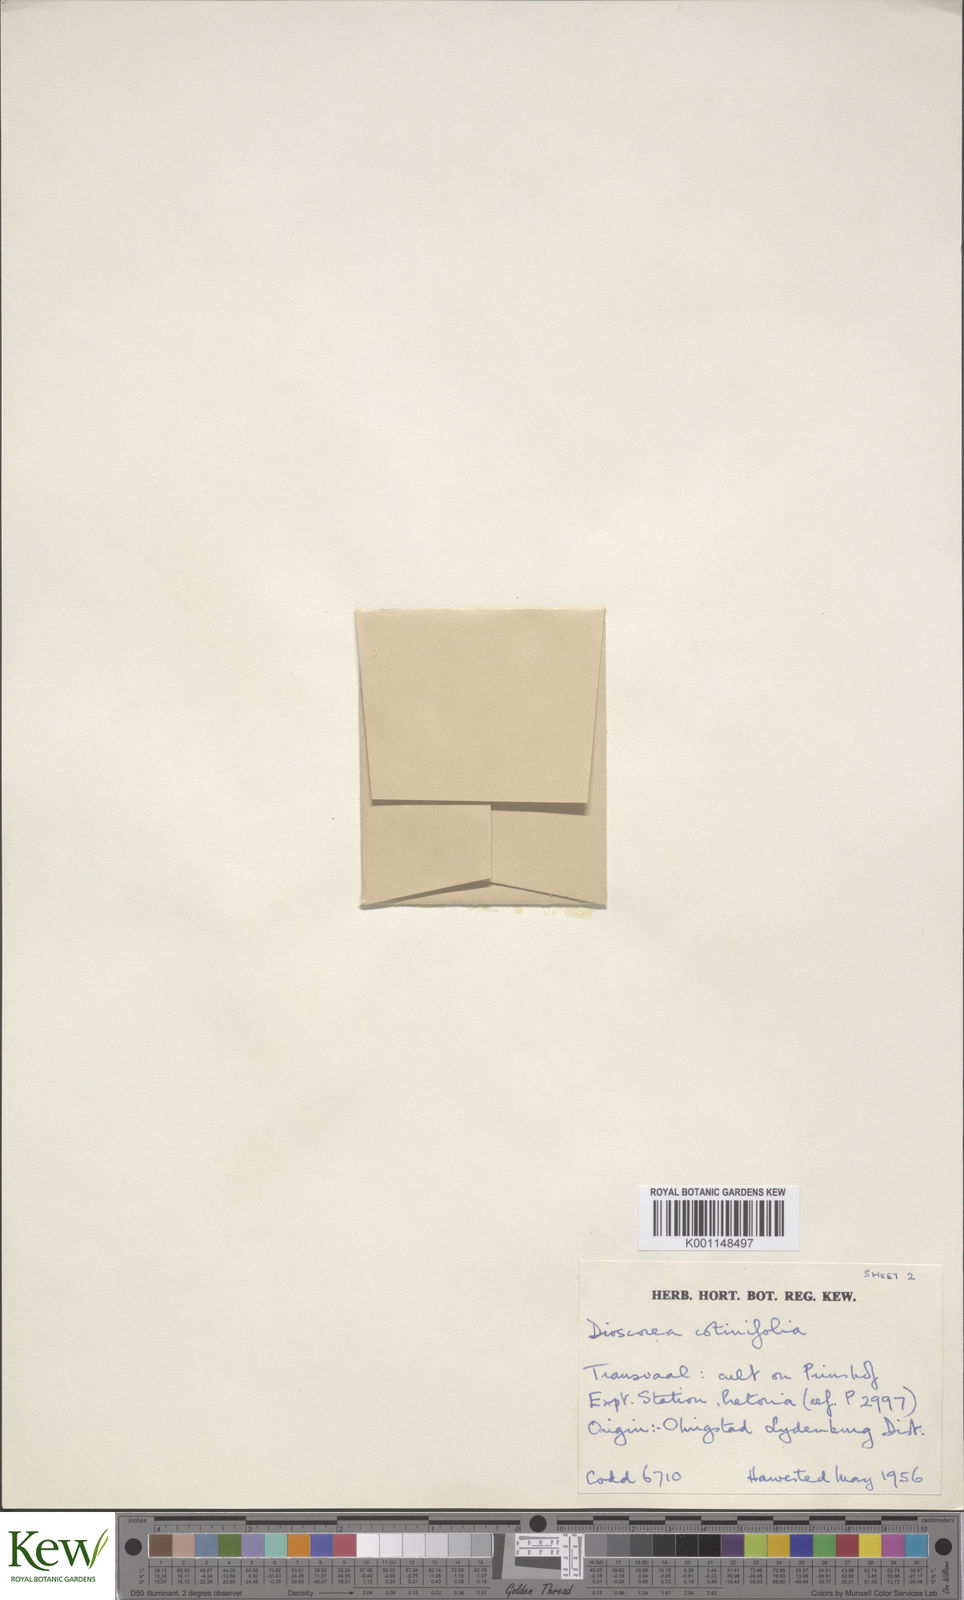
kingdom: Plantae
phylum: Tracheophyta
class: Liliopsida
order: Dioscoreales
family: Dioscoreaceae
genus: Dioscorea
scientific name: Dioscorea cotinifolia
